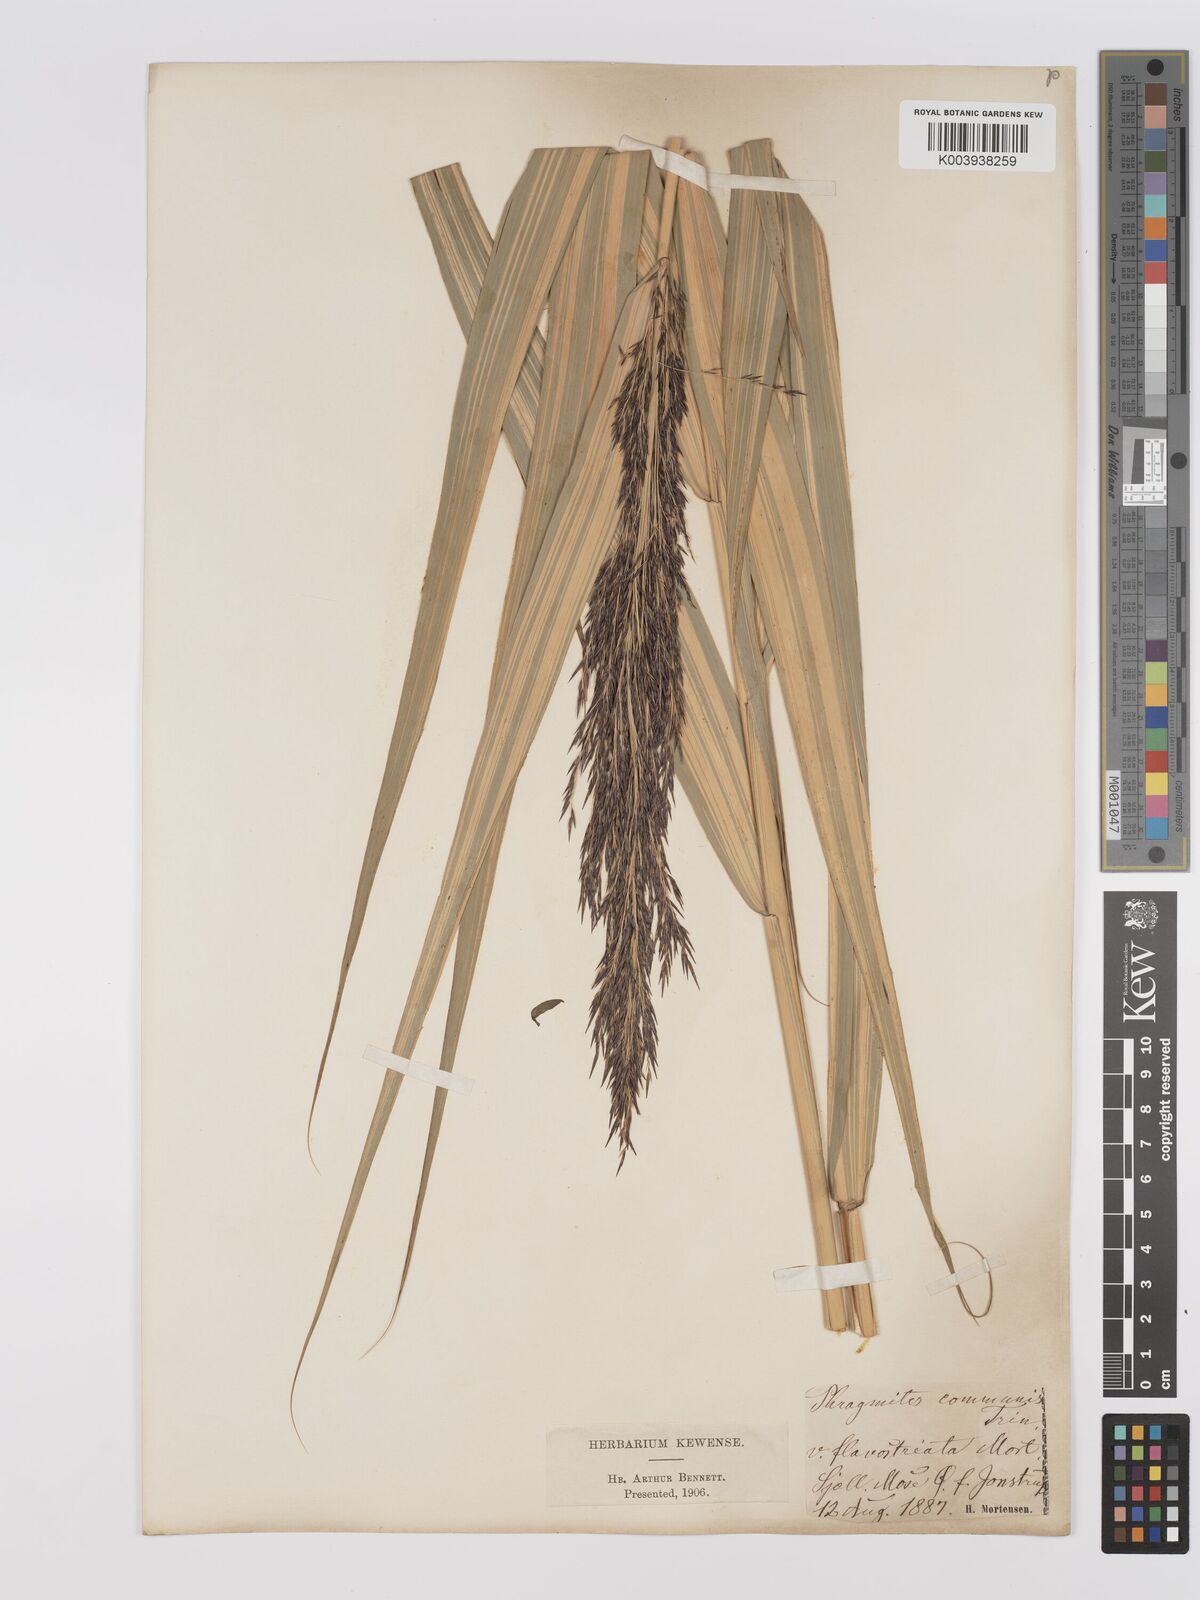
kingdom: Plantae
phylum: Tracheophyta
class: Liliopsida
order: Poales
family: Poaceae
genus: Phragmites
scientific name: Phragmites australis
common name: Common reed
